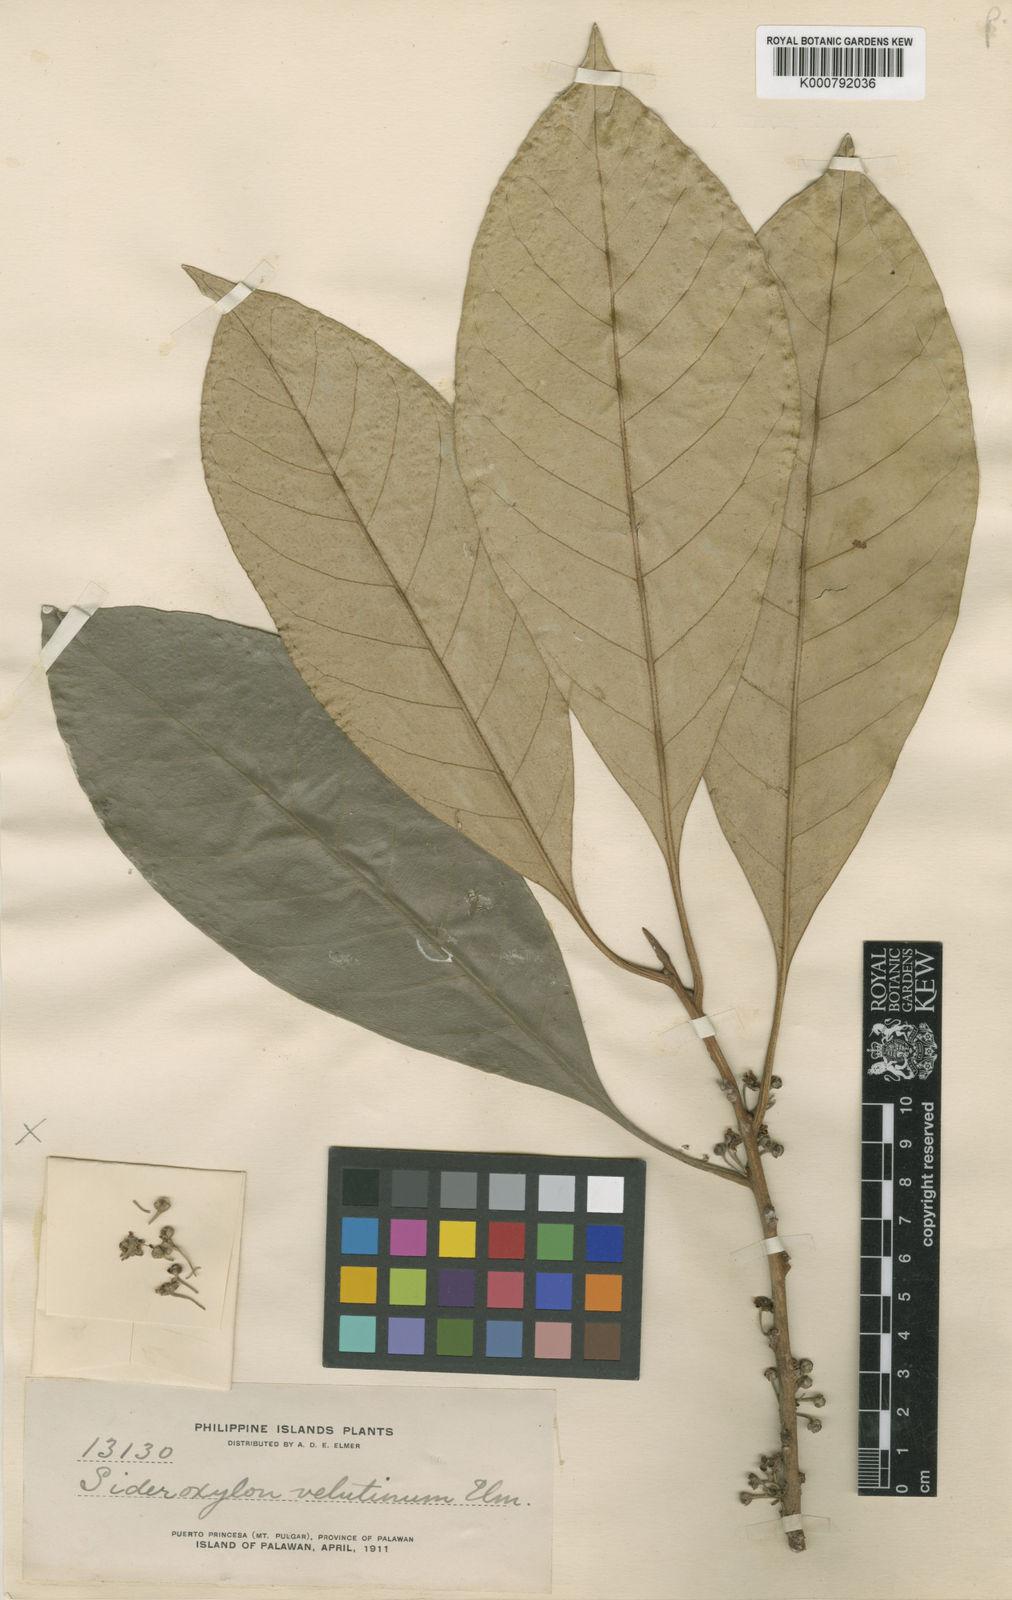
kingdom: Plantae
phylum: Tracheophyta
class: Magnoliopsida
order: Ericales
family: Sapotaceae
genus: Planchonella
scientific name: Planchonella velutina
